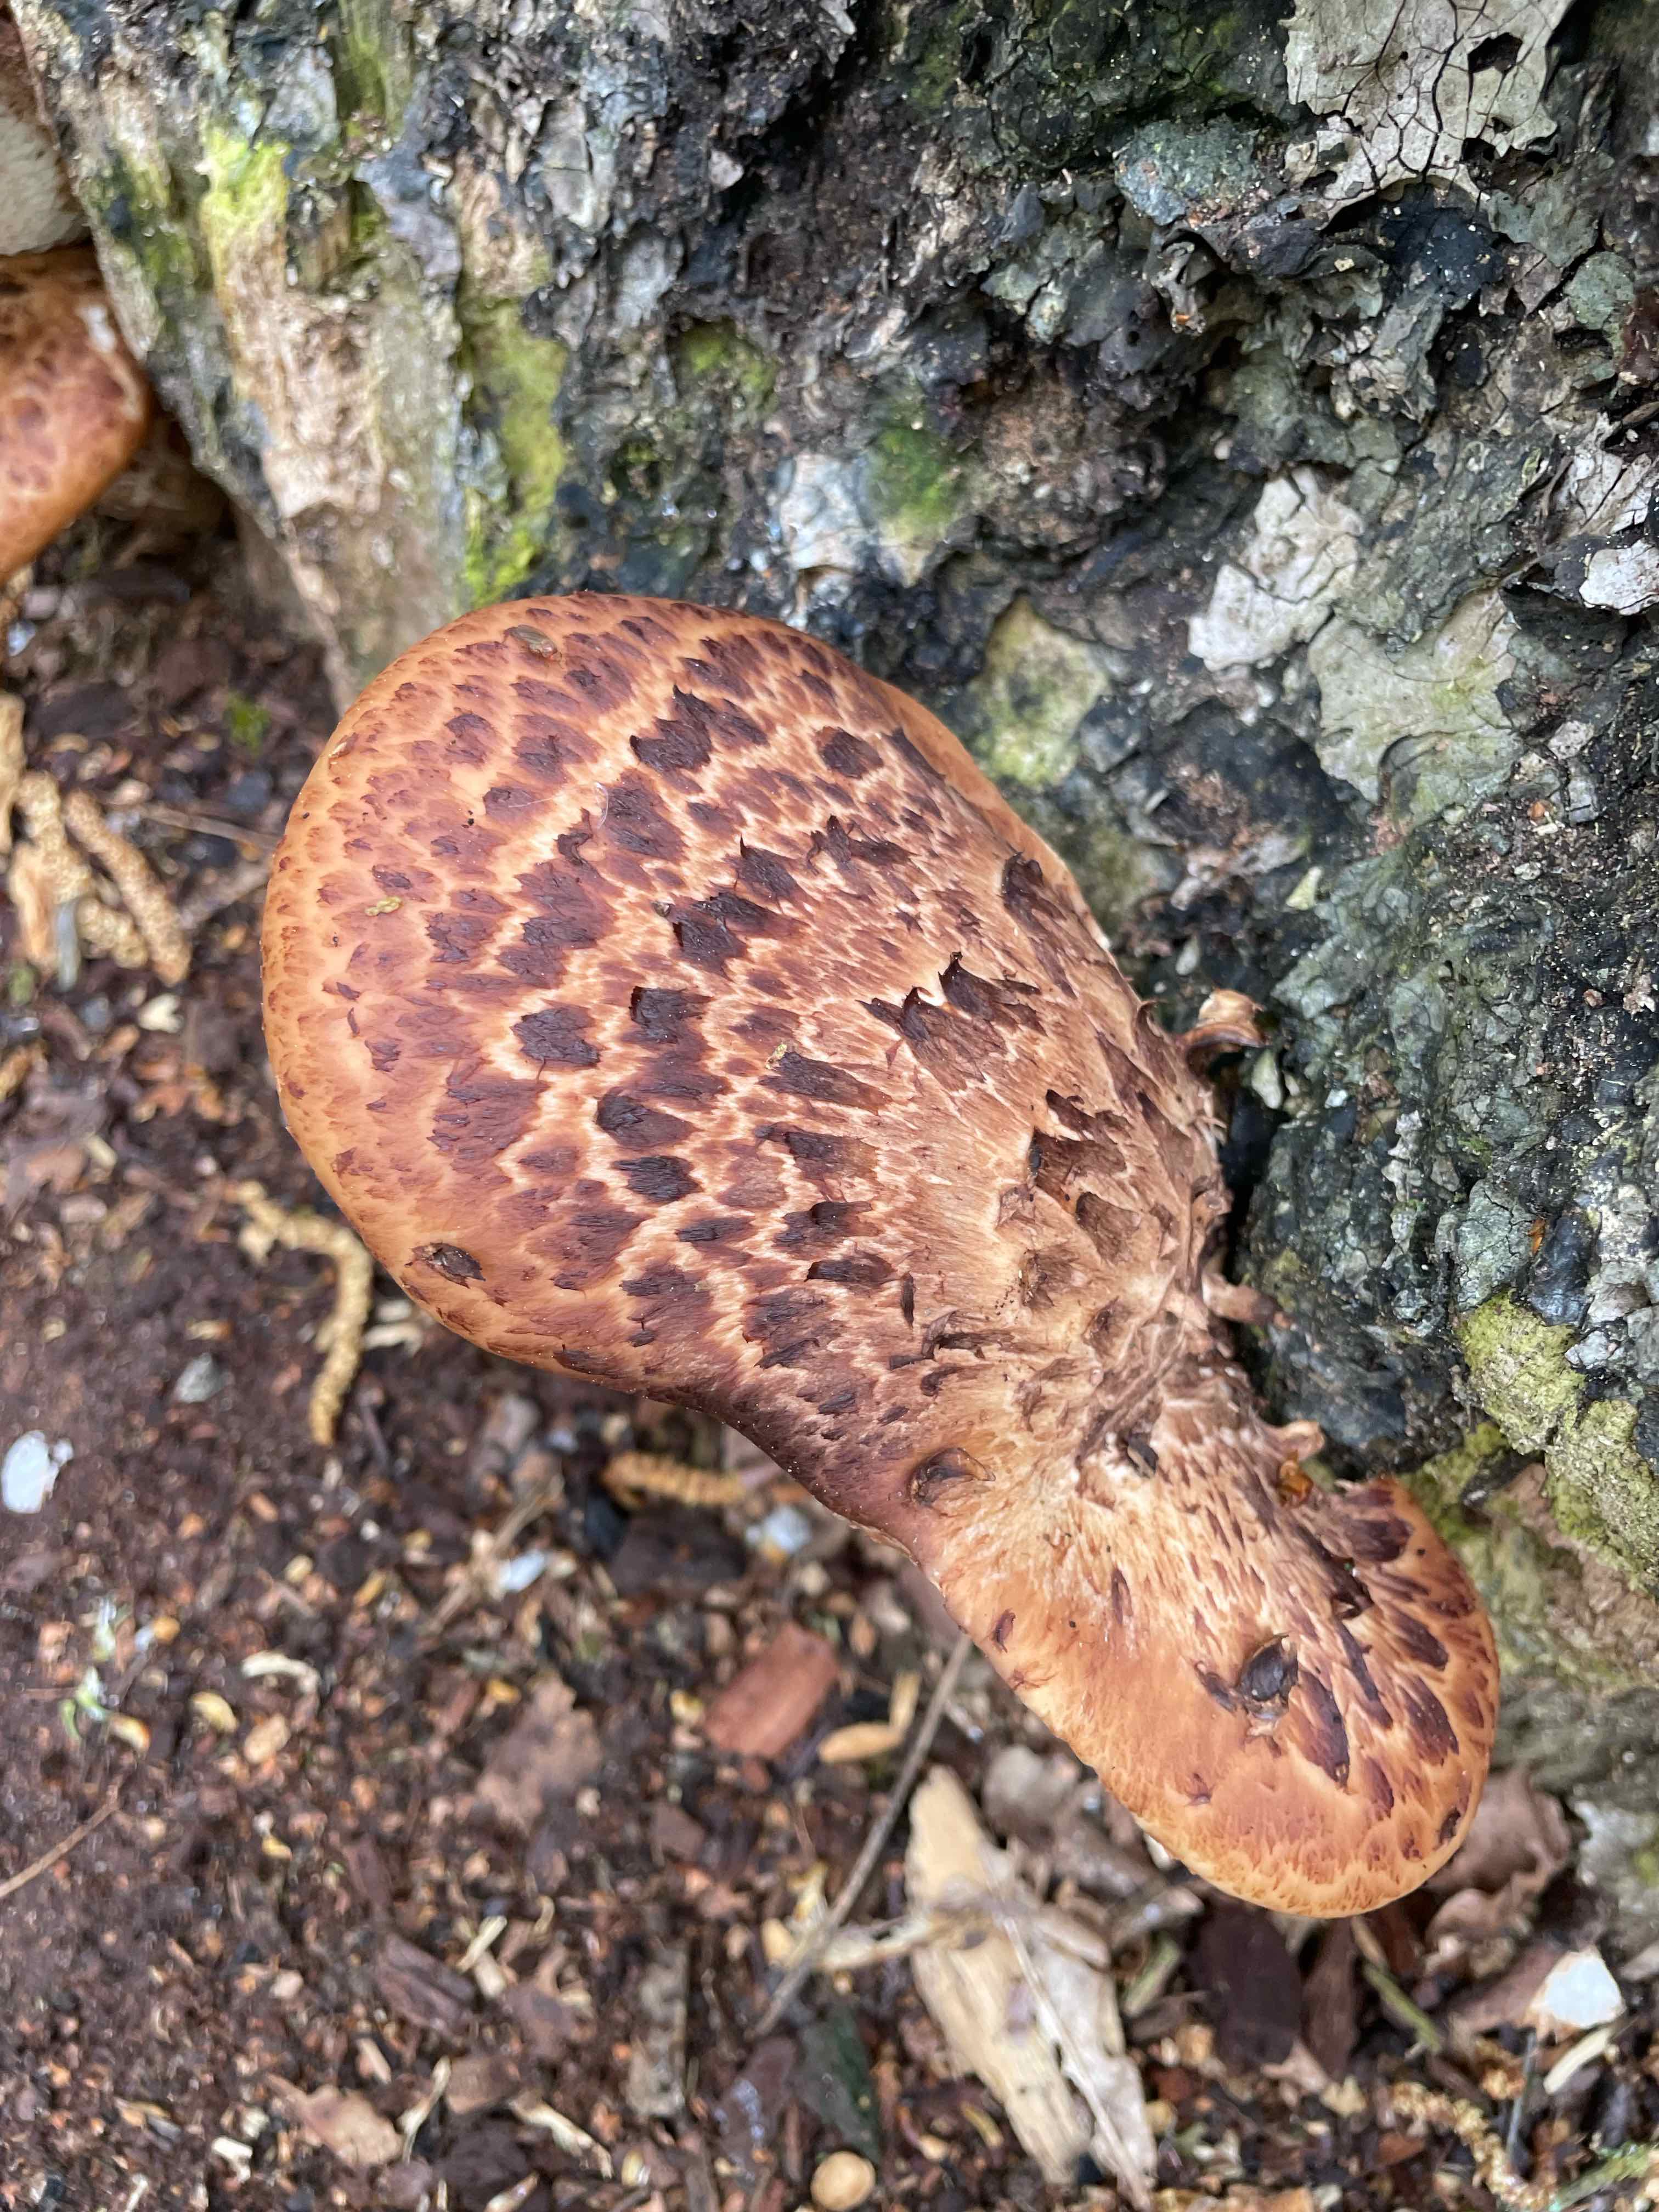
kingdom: Fungi
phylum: Basidiomycota
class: Agaricomycetes
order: Polyporales
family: Polyporaceae
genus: Cerioporus
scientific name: Cerioporus squamosus
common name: skællet stilkporesvamp
